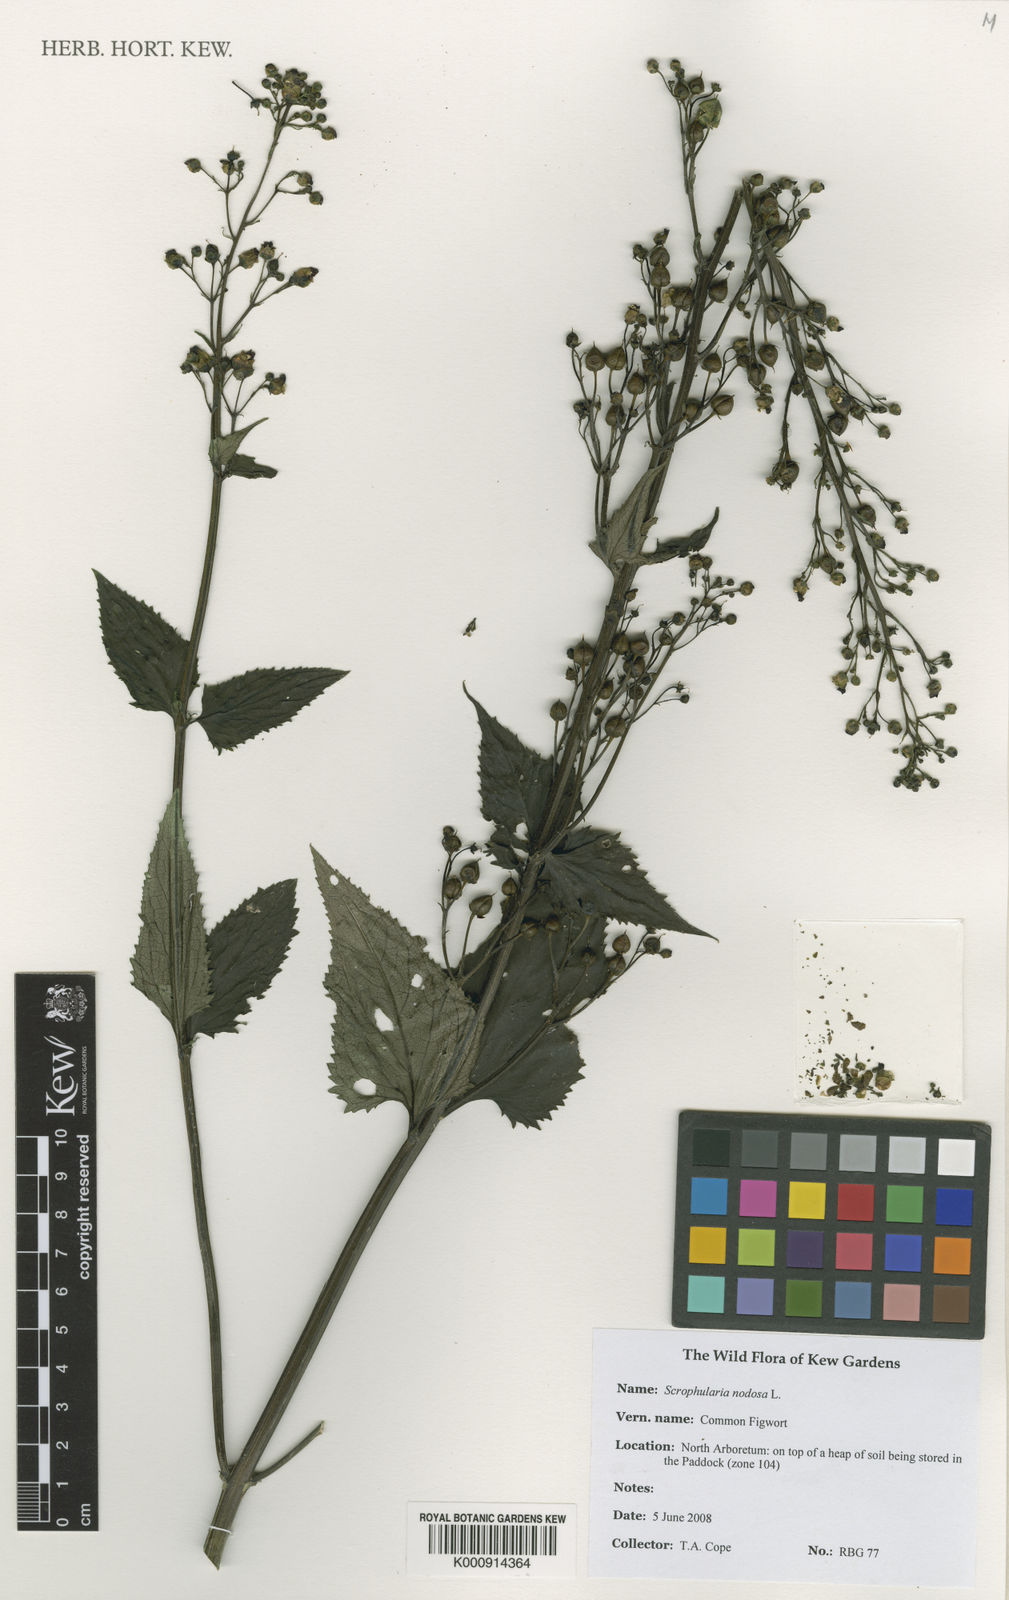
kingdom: Plantae
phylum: Tracheophyta
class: Magnoliopsida
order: Lamiales
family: Scrophulariaceae
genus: Scrophularia
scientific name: Scrophularia nodosa
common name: Common figwort
